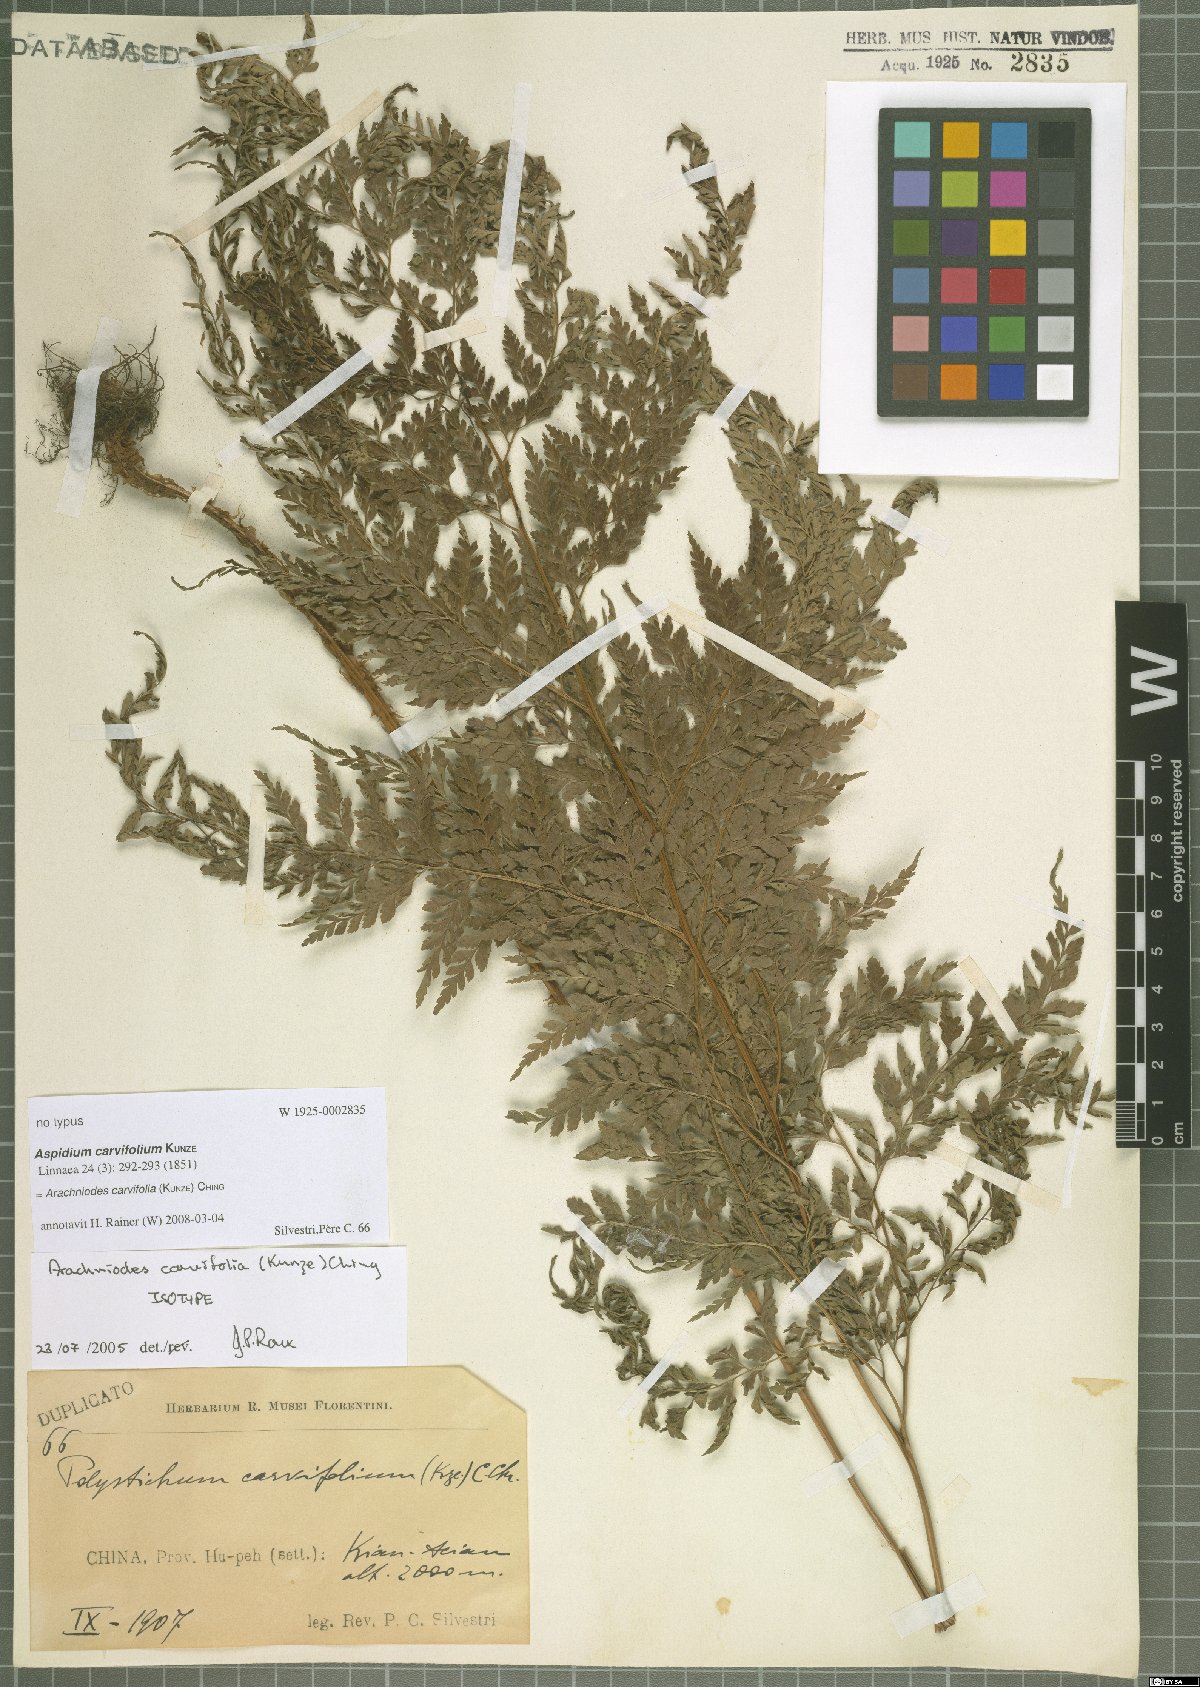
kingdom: Plantae
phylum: Tracheophyta
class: Polypodiopsida
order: Polypodiales
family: Dryopteridaceae
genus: Arachniodes
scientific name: Arachniodes carvifolia
